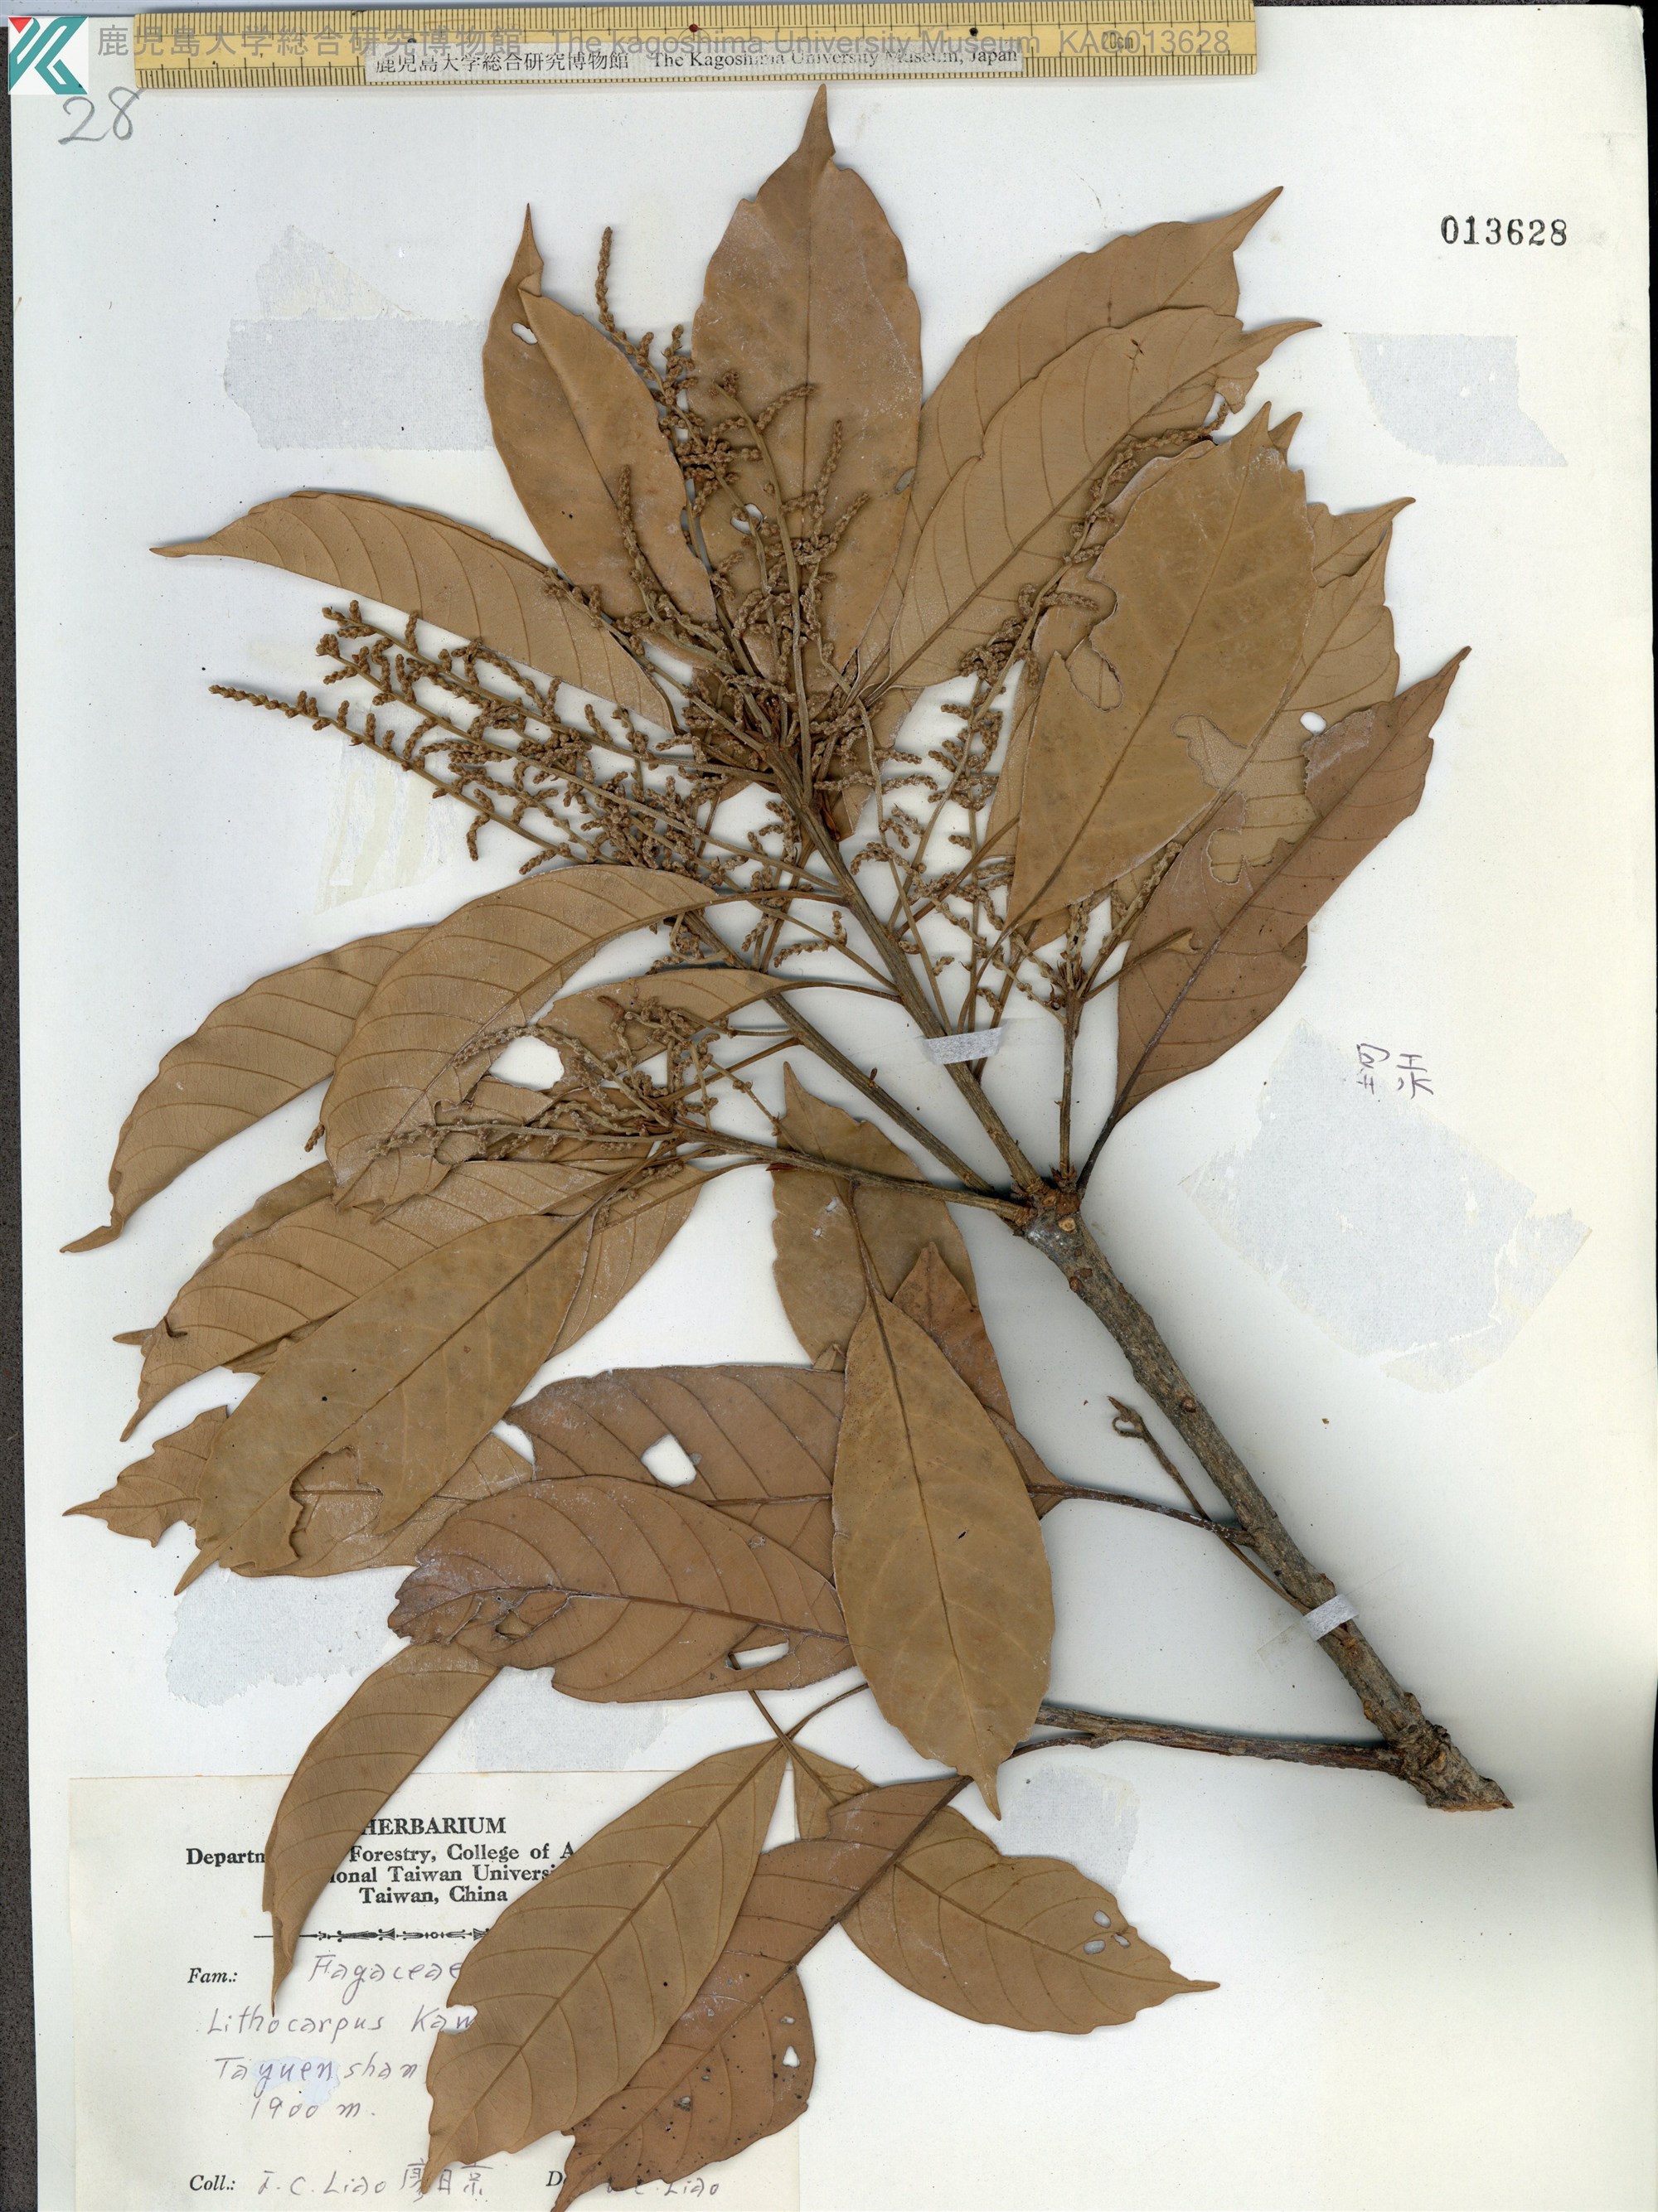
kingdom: Plantae
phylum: Tracheophyta
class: Magnoliopsida
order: Fagales
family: Fagaceae
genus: Lithocarpus
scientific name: Lithocarpus kawakamii
